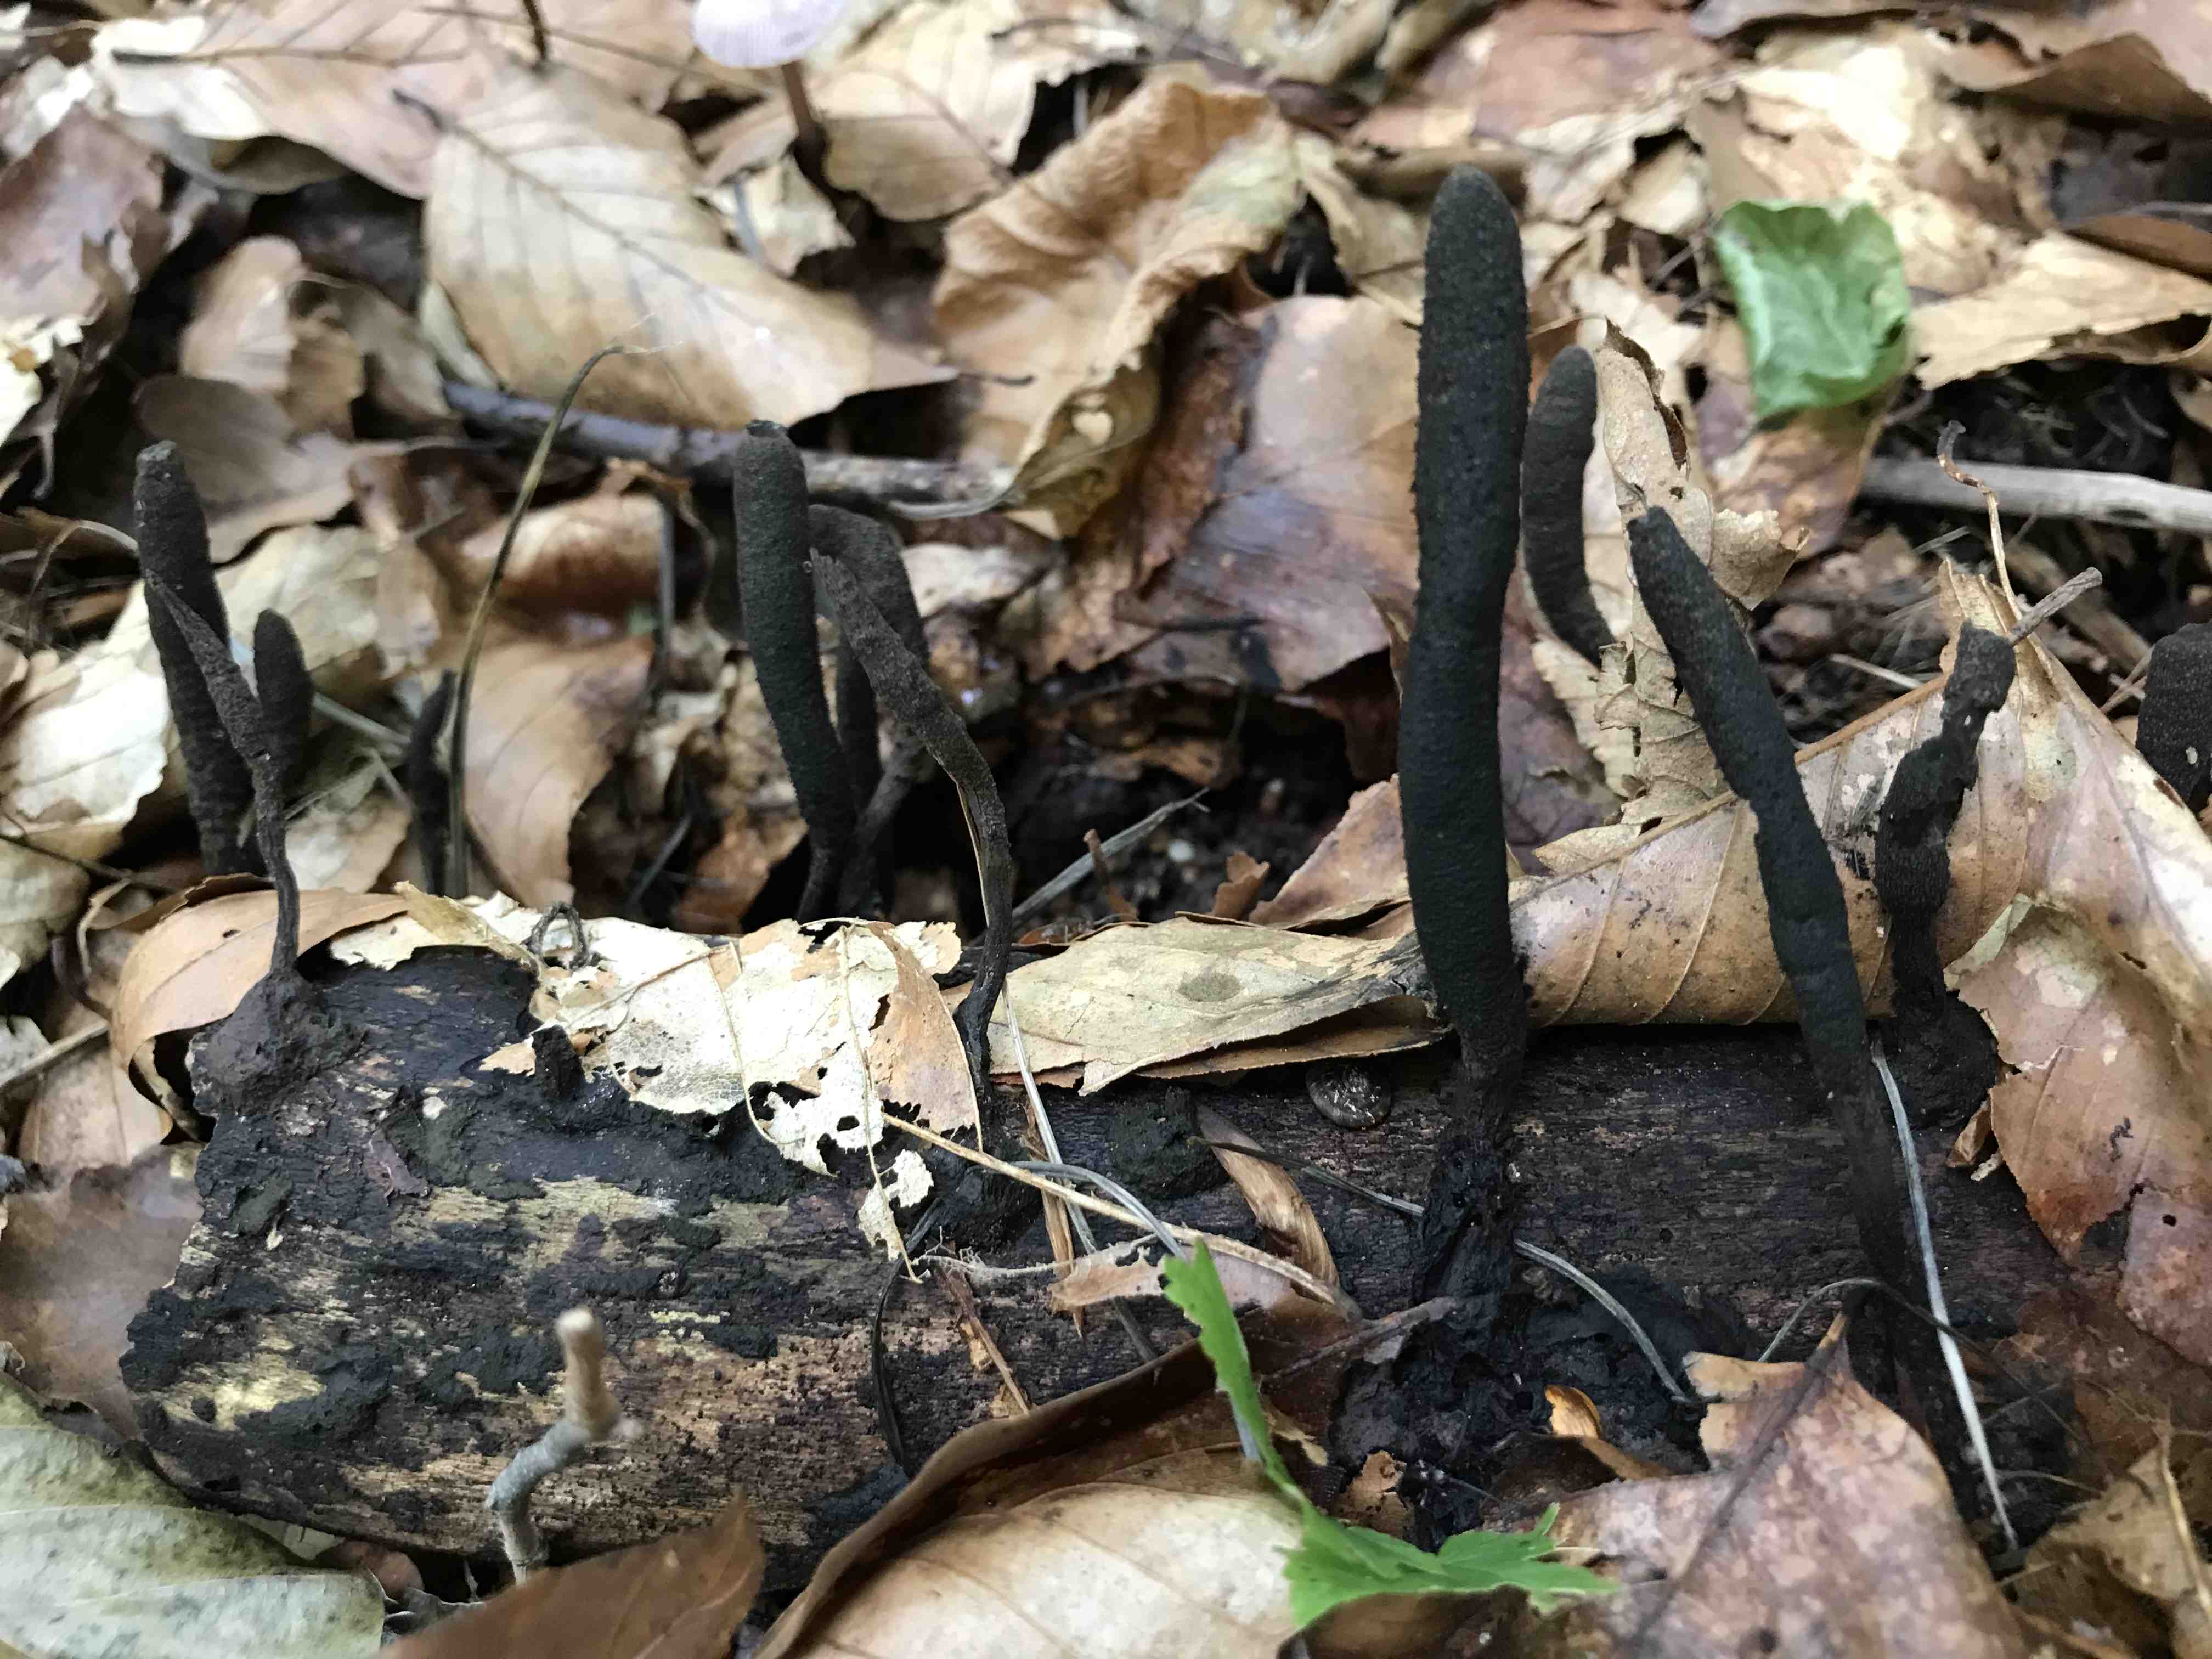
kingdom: Fungi
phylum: Ascomycota
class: Sordariomycetes
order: Xylariales
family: Xylariaceae
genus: Xylaria
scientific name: Xylaria longipes
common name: slank stødsvamp
